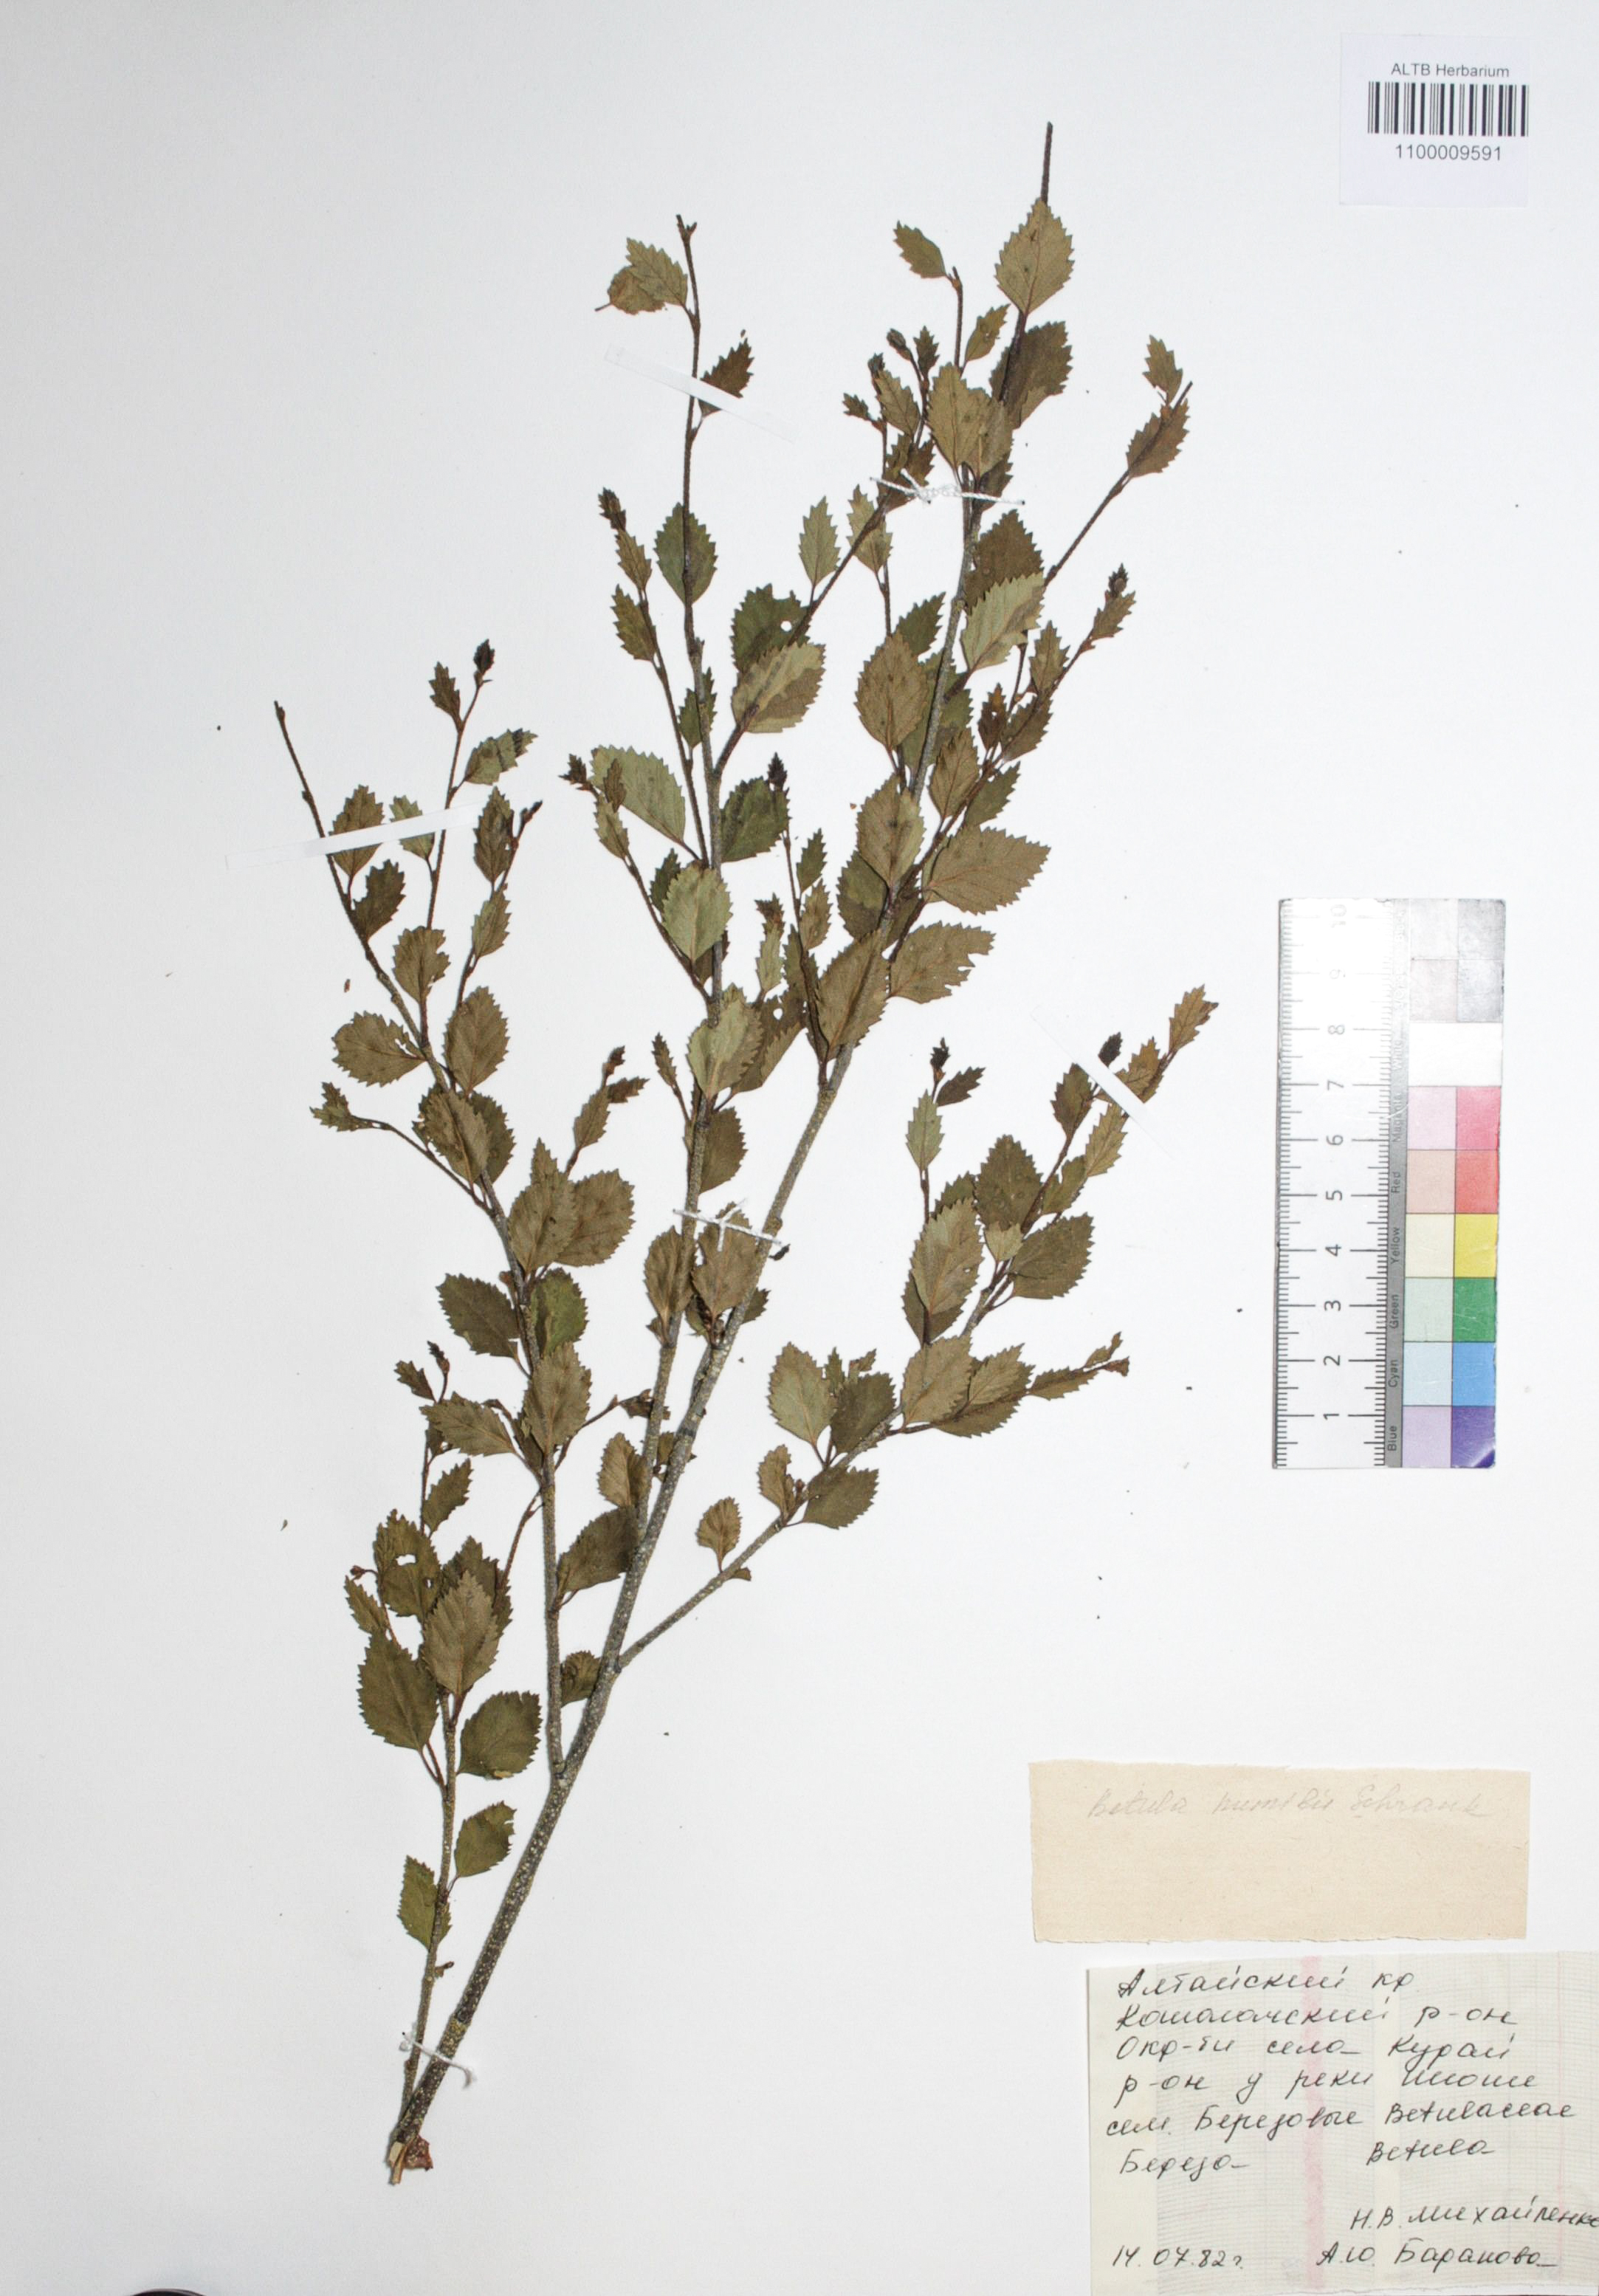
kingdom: Plantae
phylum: Tracheophyta
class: Magnoliopsida
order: Fagales
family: Betulaceae
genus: Betula
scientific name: Betula humilis
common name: Shrubby birch
